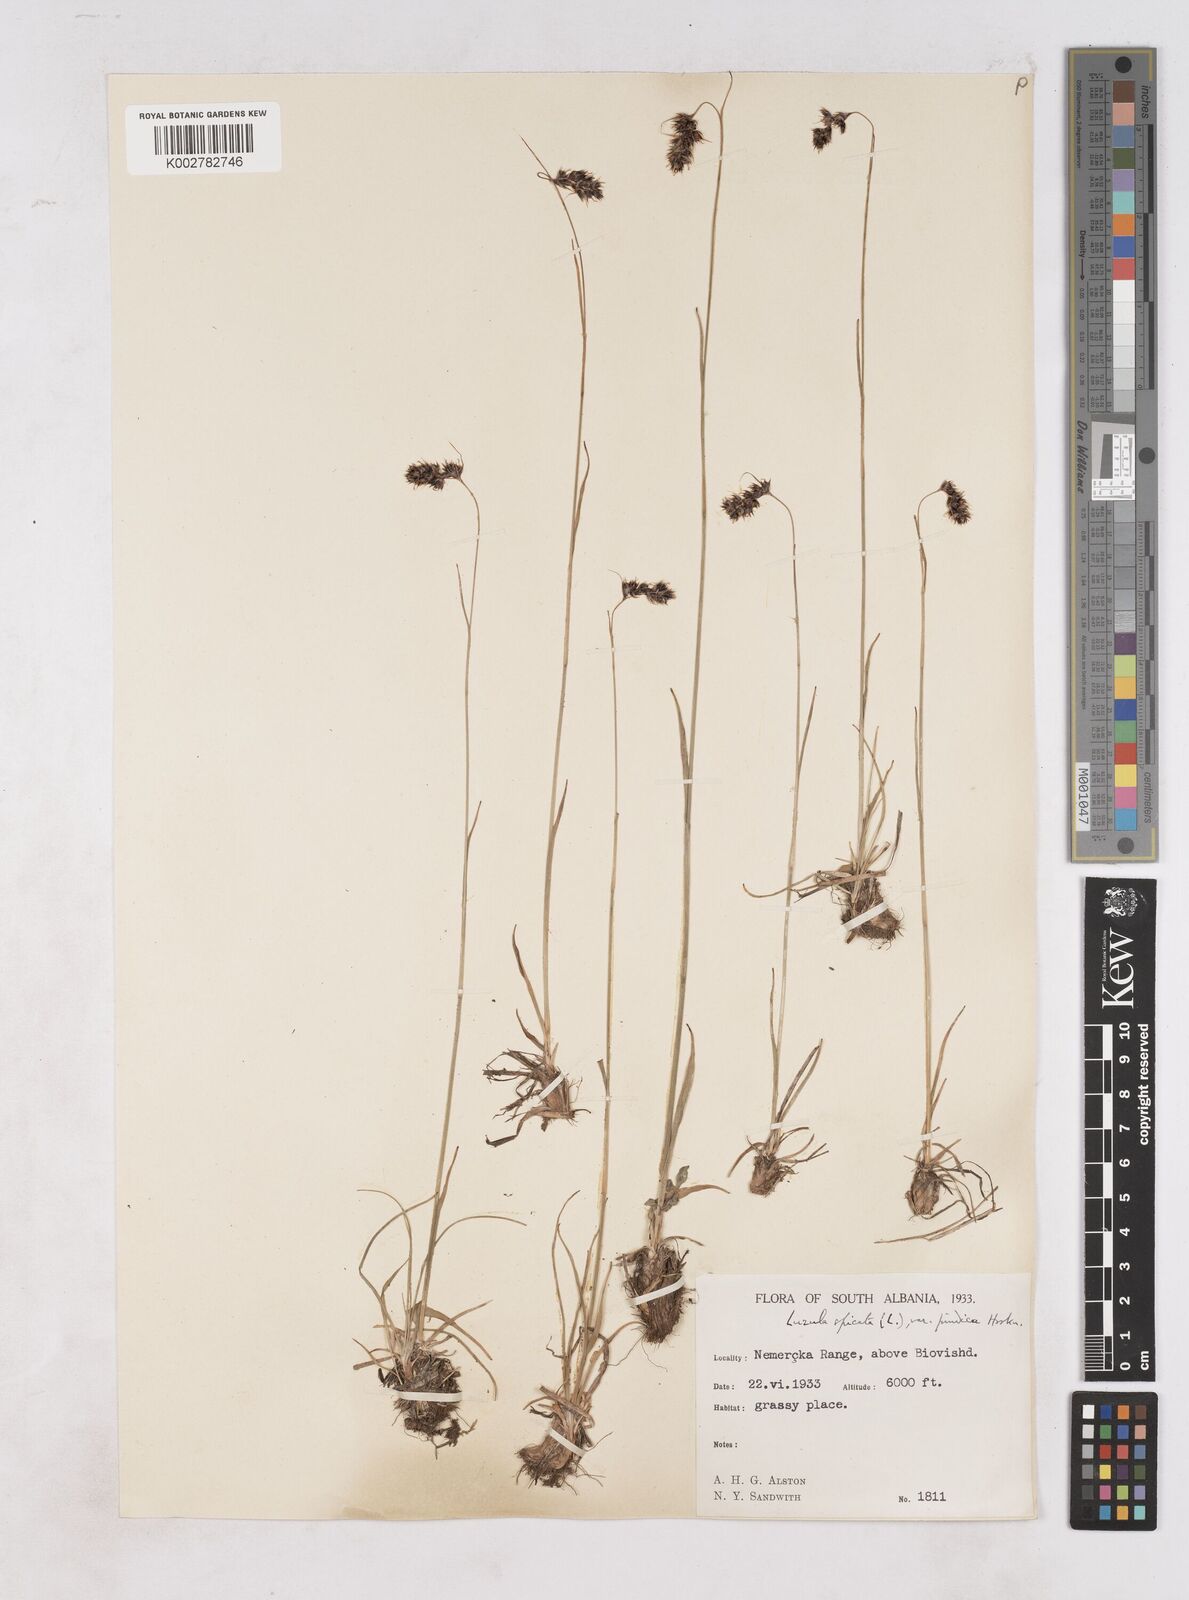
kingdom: Plantae
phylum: Tracheophyta
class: Liliopsida
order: Poales
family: Juncaceae
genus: Luzula
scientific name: Luzula spicata
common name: Spiked wood-rush
